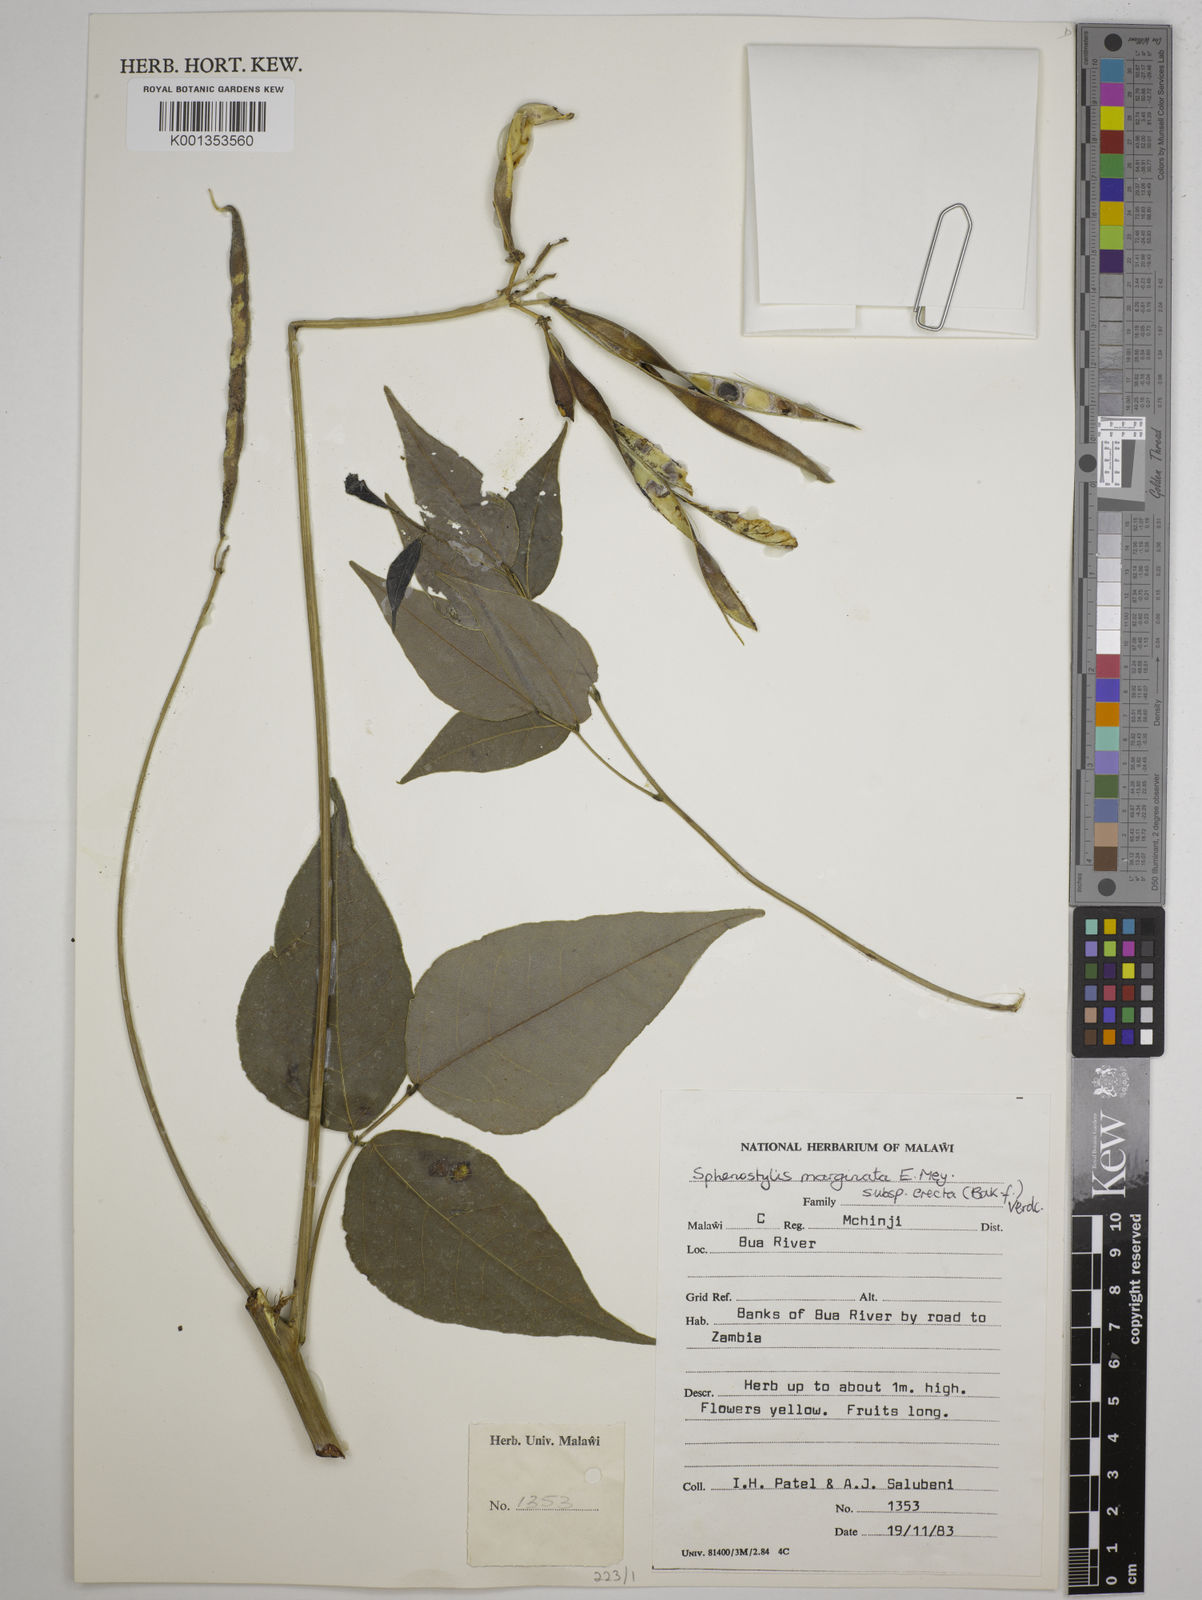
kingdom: Plantae
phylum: Tracheophyta
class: Magnoliopsida
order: Fabales
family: Fabaceae
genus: Sphenostylis
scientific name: Sphenostylis erecta
